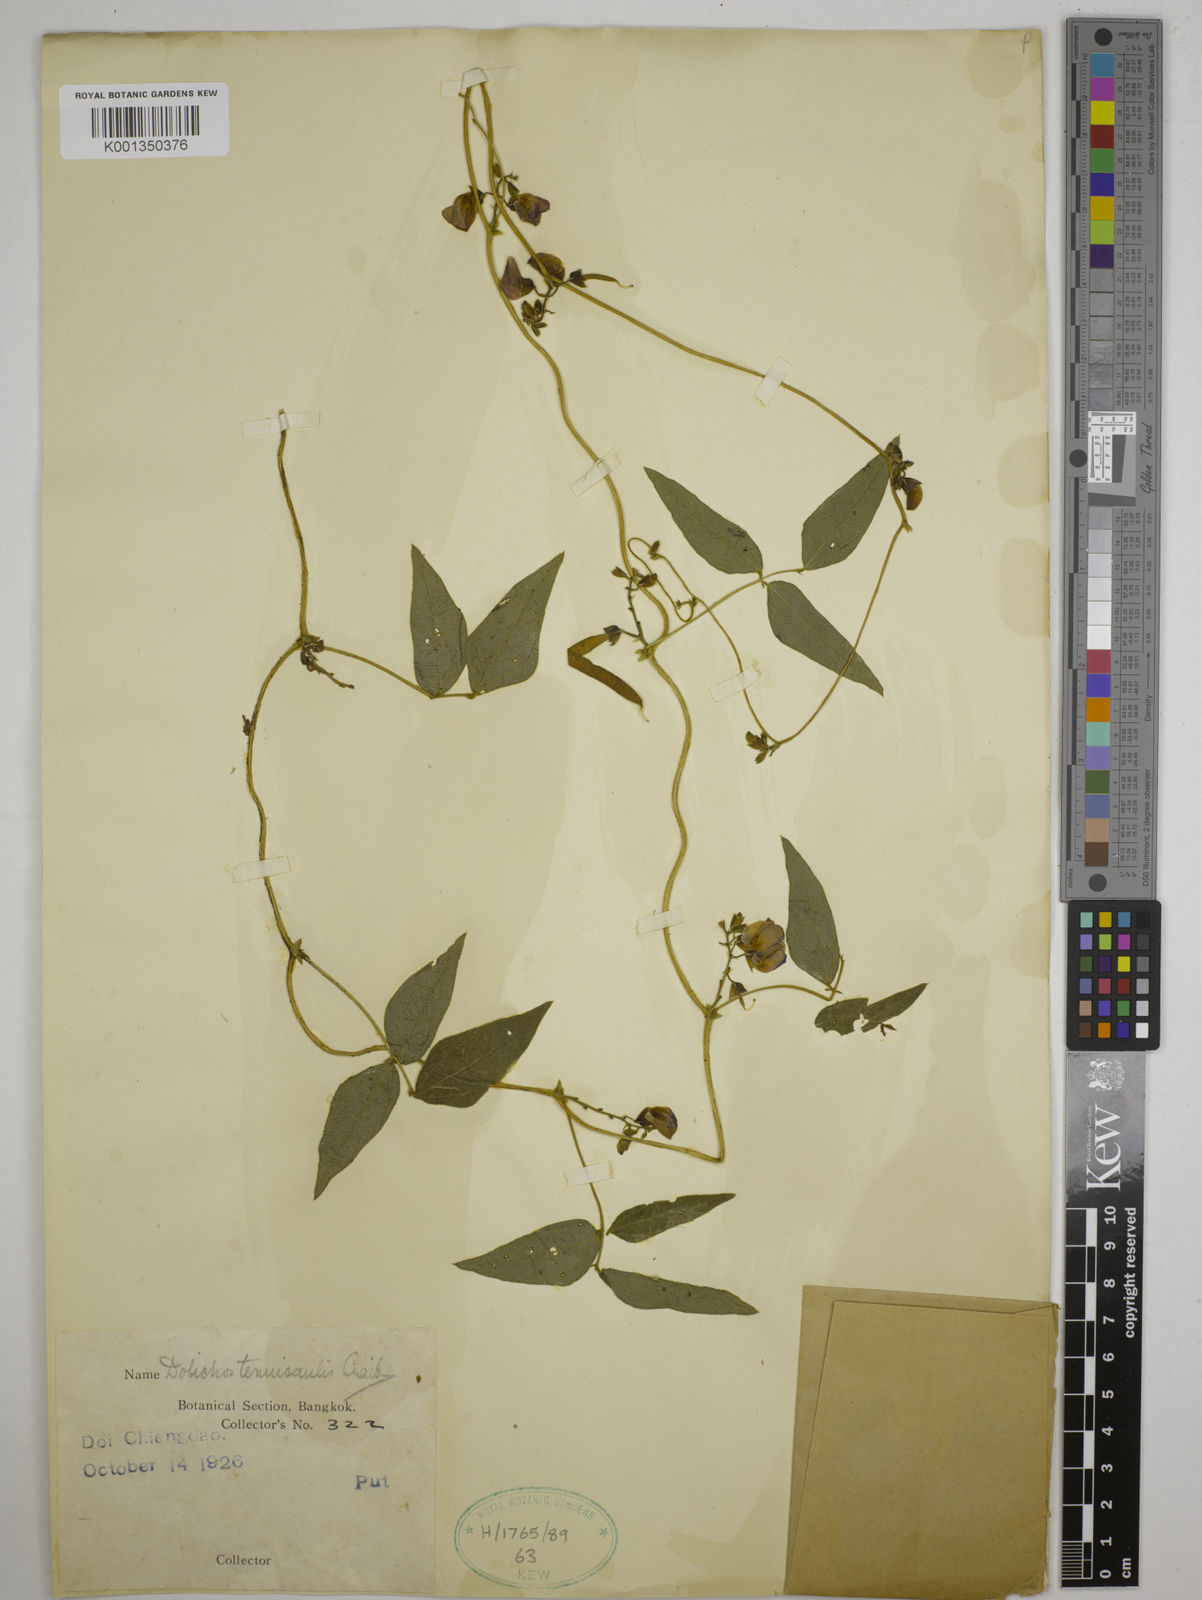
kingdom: Plantae
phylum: Tracheophyta
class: Magnoliopsida
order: Fabales
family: Fabaceae
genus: Dolichos
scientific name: Dolichos tenuicaulis
